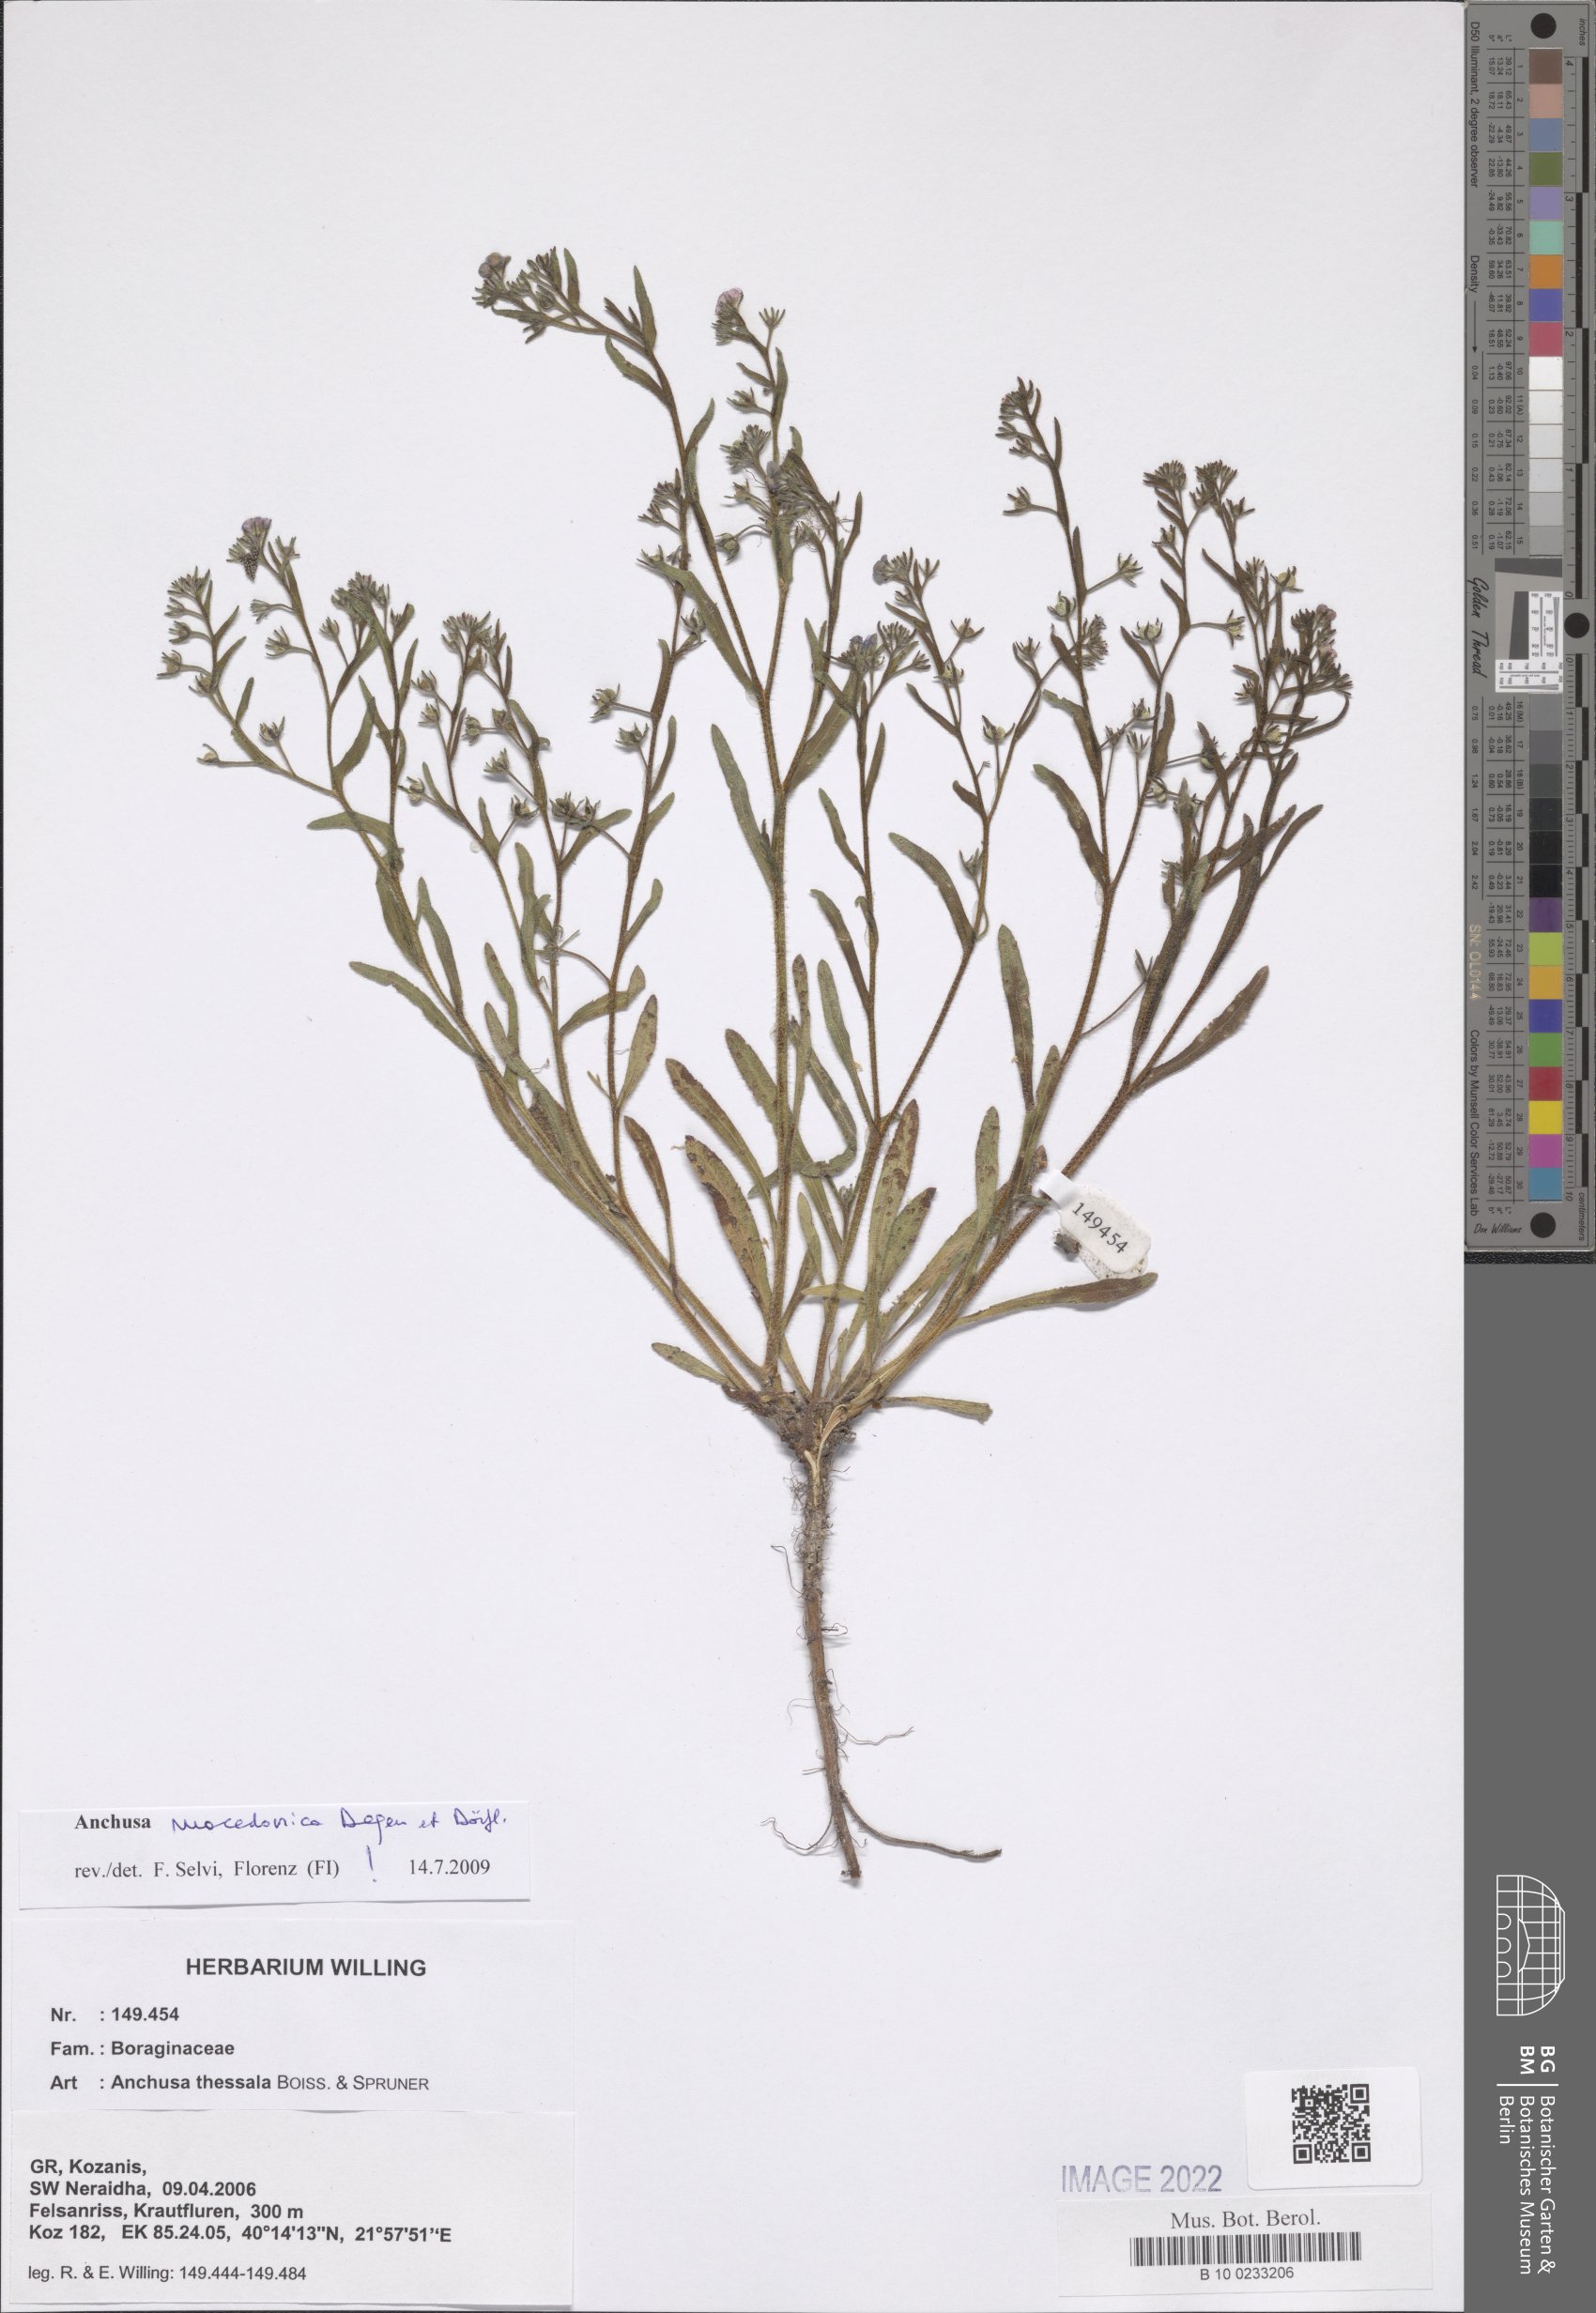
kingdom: Plantae
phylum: Tracheophyta
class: Magnoliopsida
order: Boraginales
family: Boraginaceae
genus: Anchusa
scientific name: Anchusa thessala
